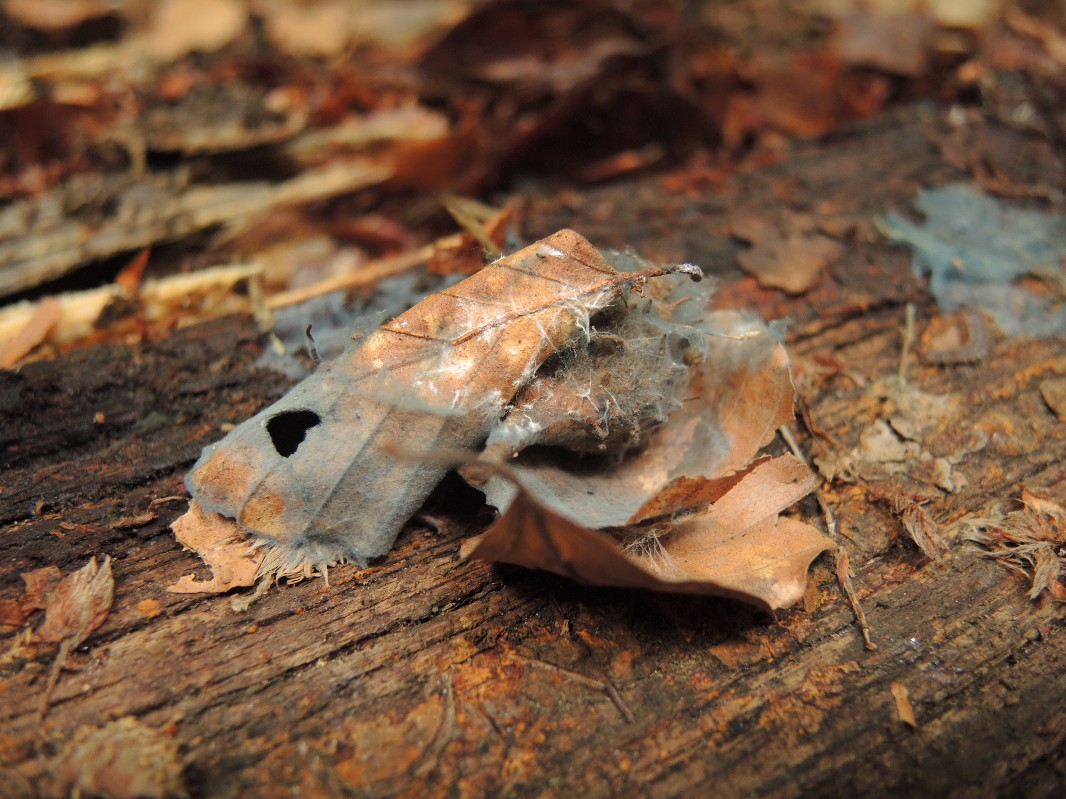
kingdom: Fungi
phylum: Basidiomycota
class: Agaricomycetes
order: Atheliales
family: Atheliaceae
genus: Byssocorticium
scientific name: Byssocorticium atrovirens
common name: blå førnehinde
